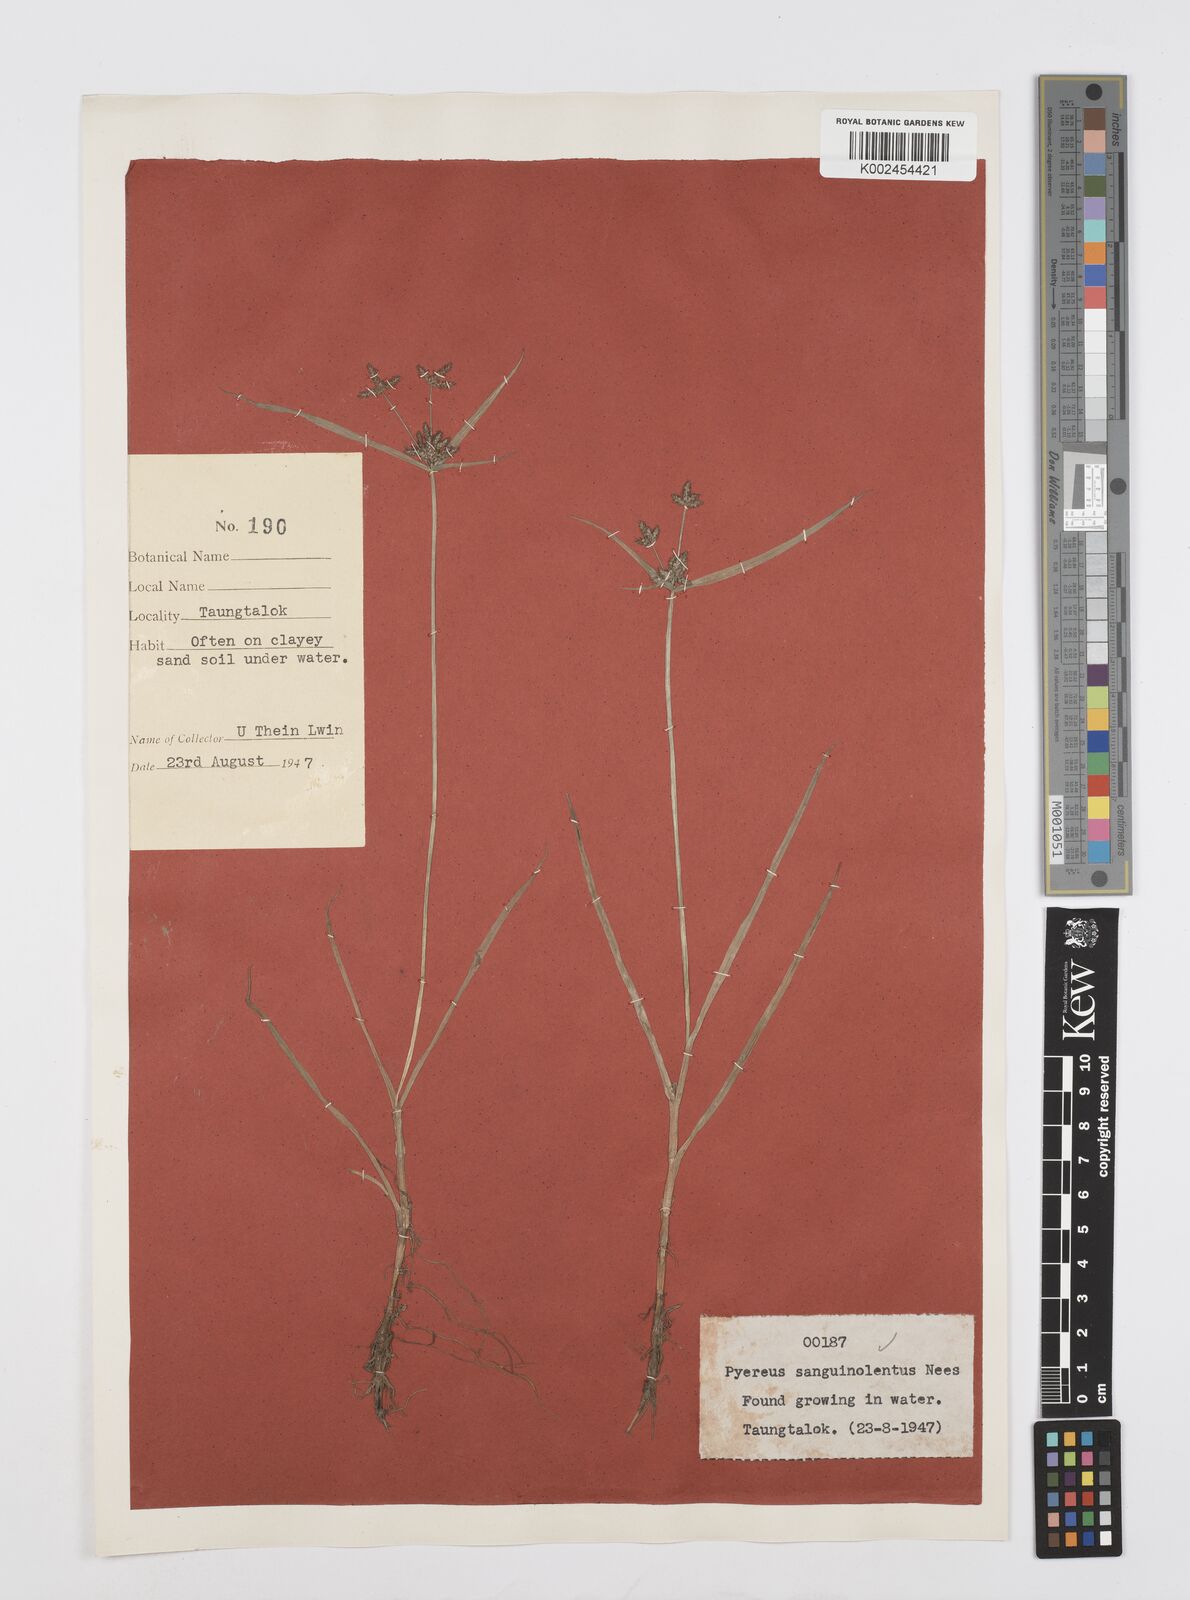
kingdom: Plantae
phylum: Tracheophyta
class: Liliopsida
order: Poales
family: Cyperaceae
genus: Cyperus
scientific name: Cyperus sanguinolentus
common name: Purpleglume flatsedge
